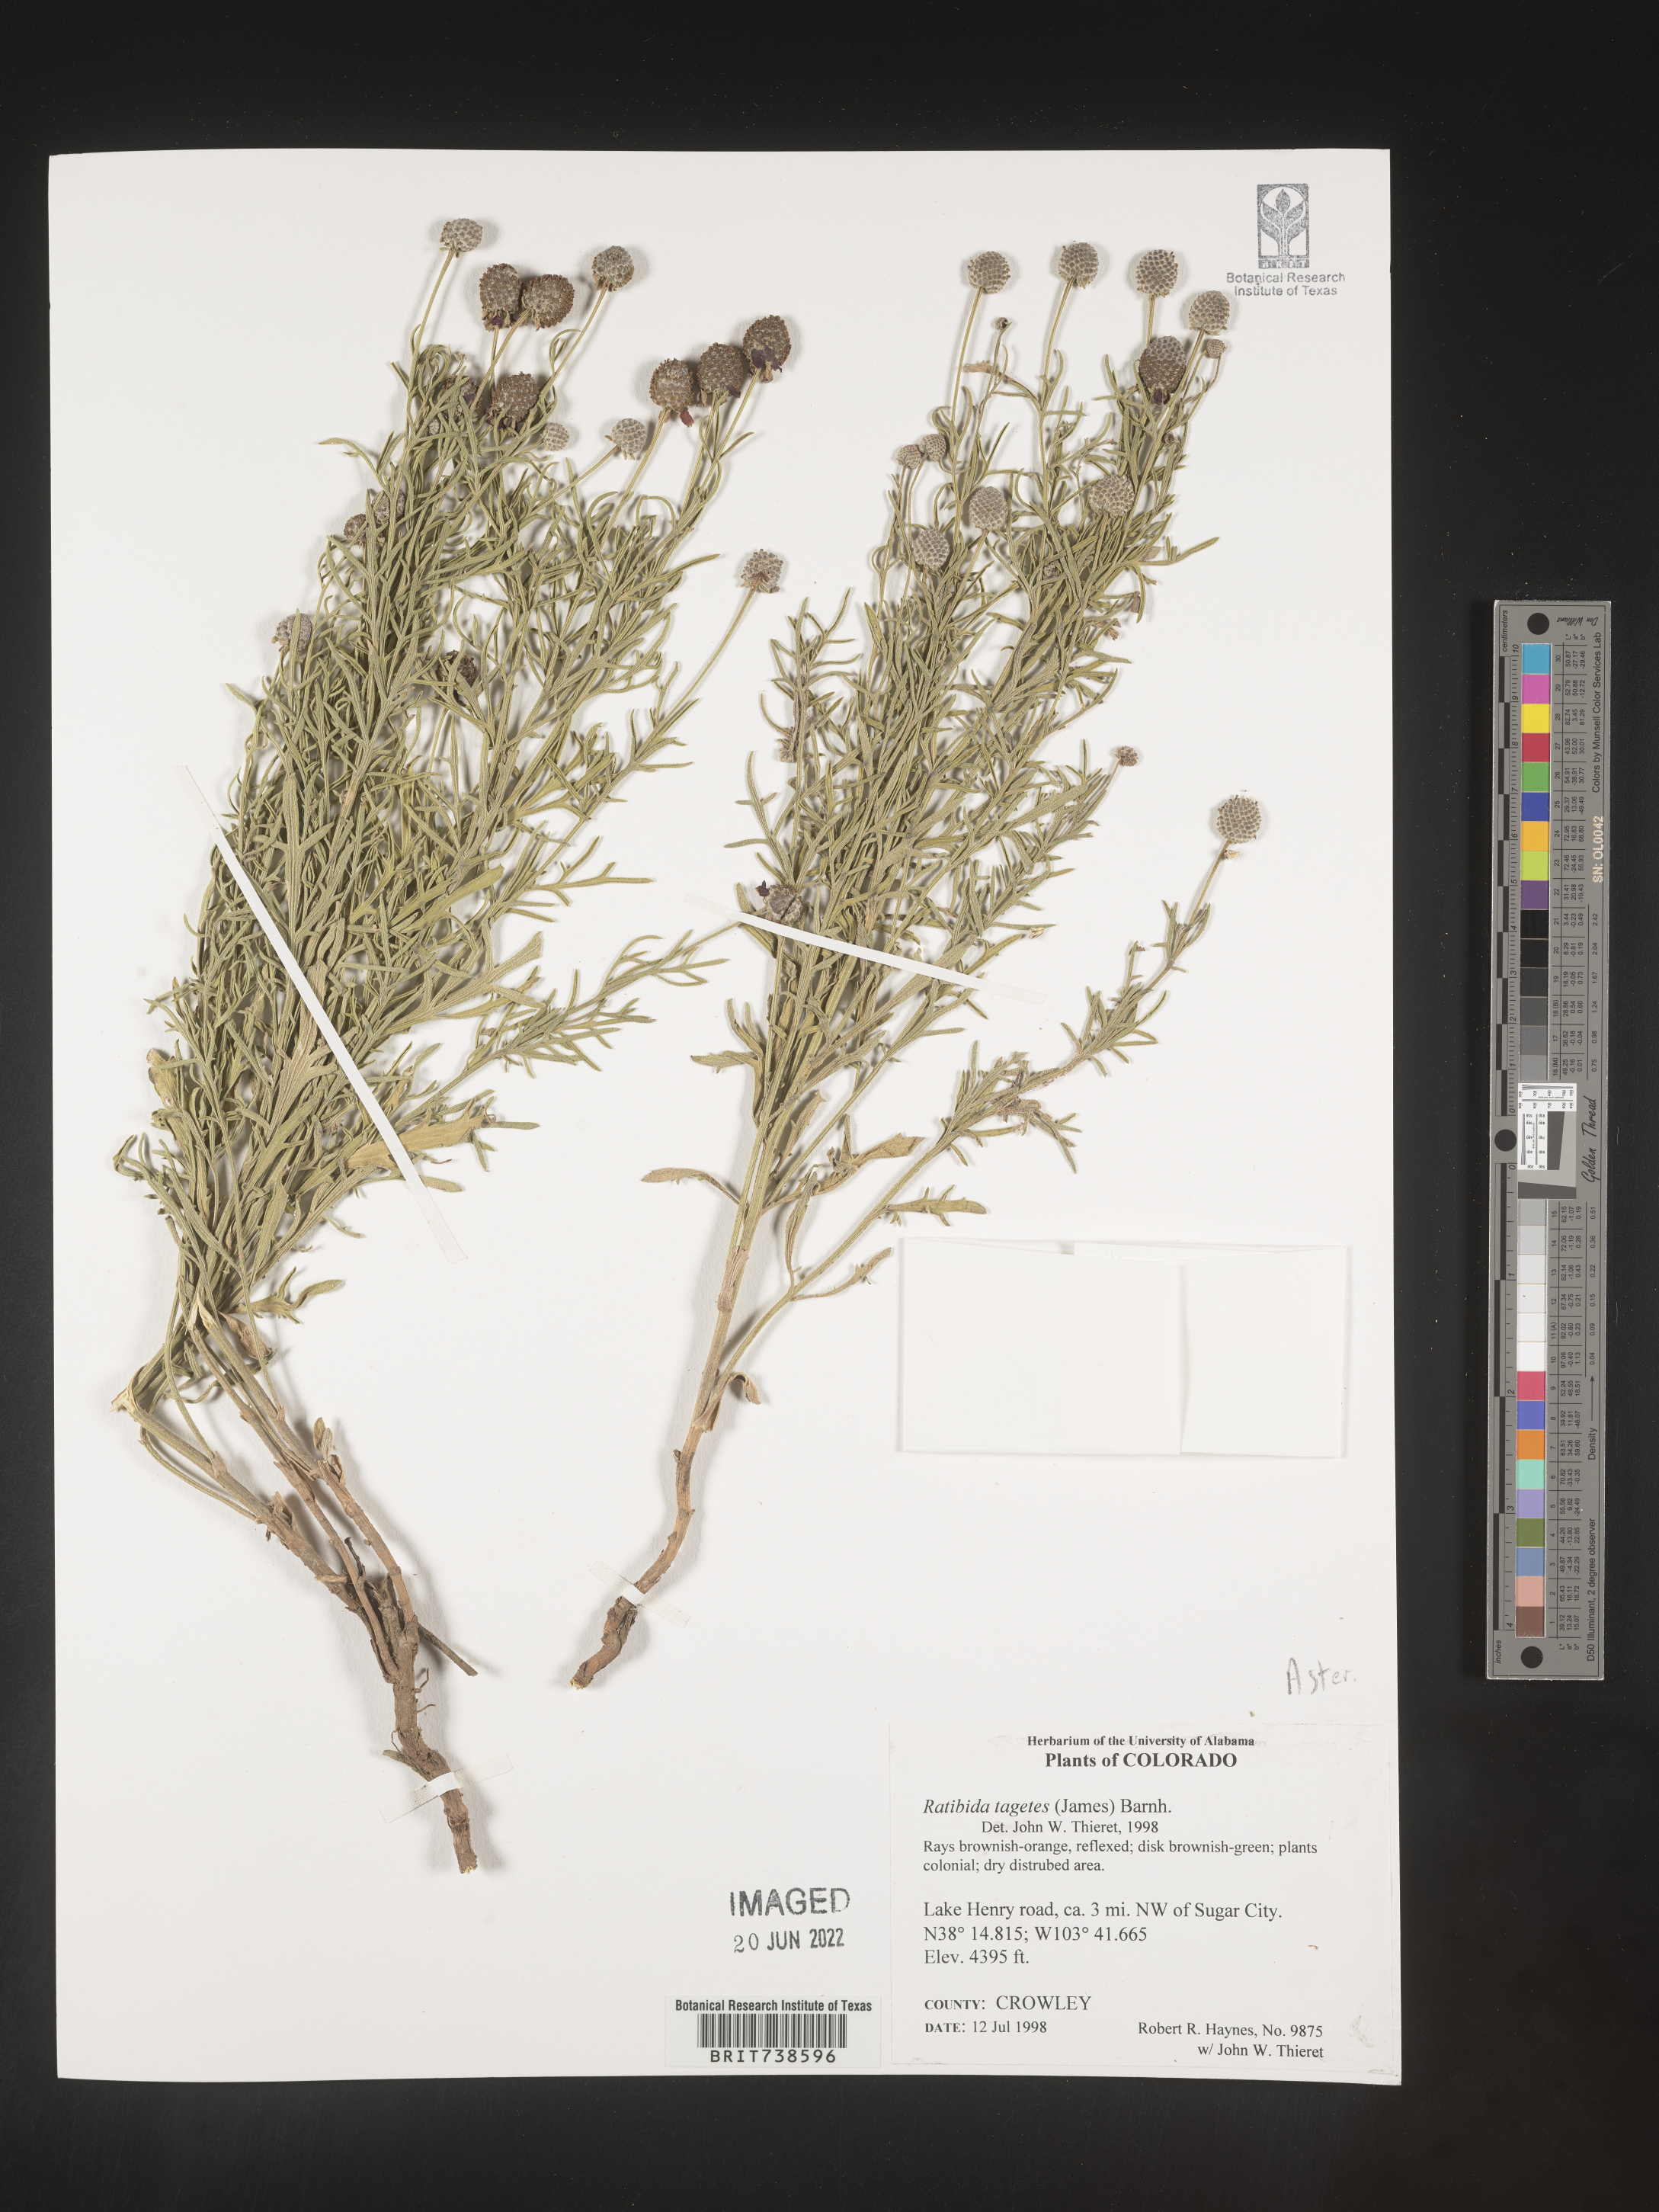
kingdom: Plantae
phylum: Tracheophyta
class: Magnoliopsida
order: Asterales
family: Asteraceae
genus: Ratibida
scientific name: Ratibida tagetes
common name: Green mexican-hat
